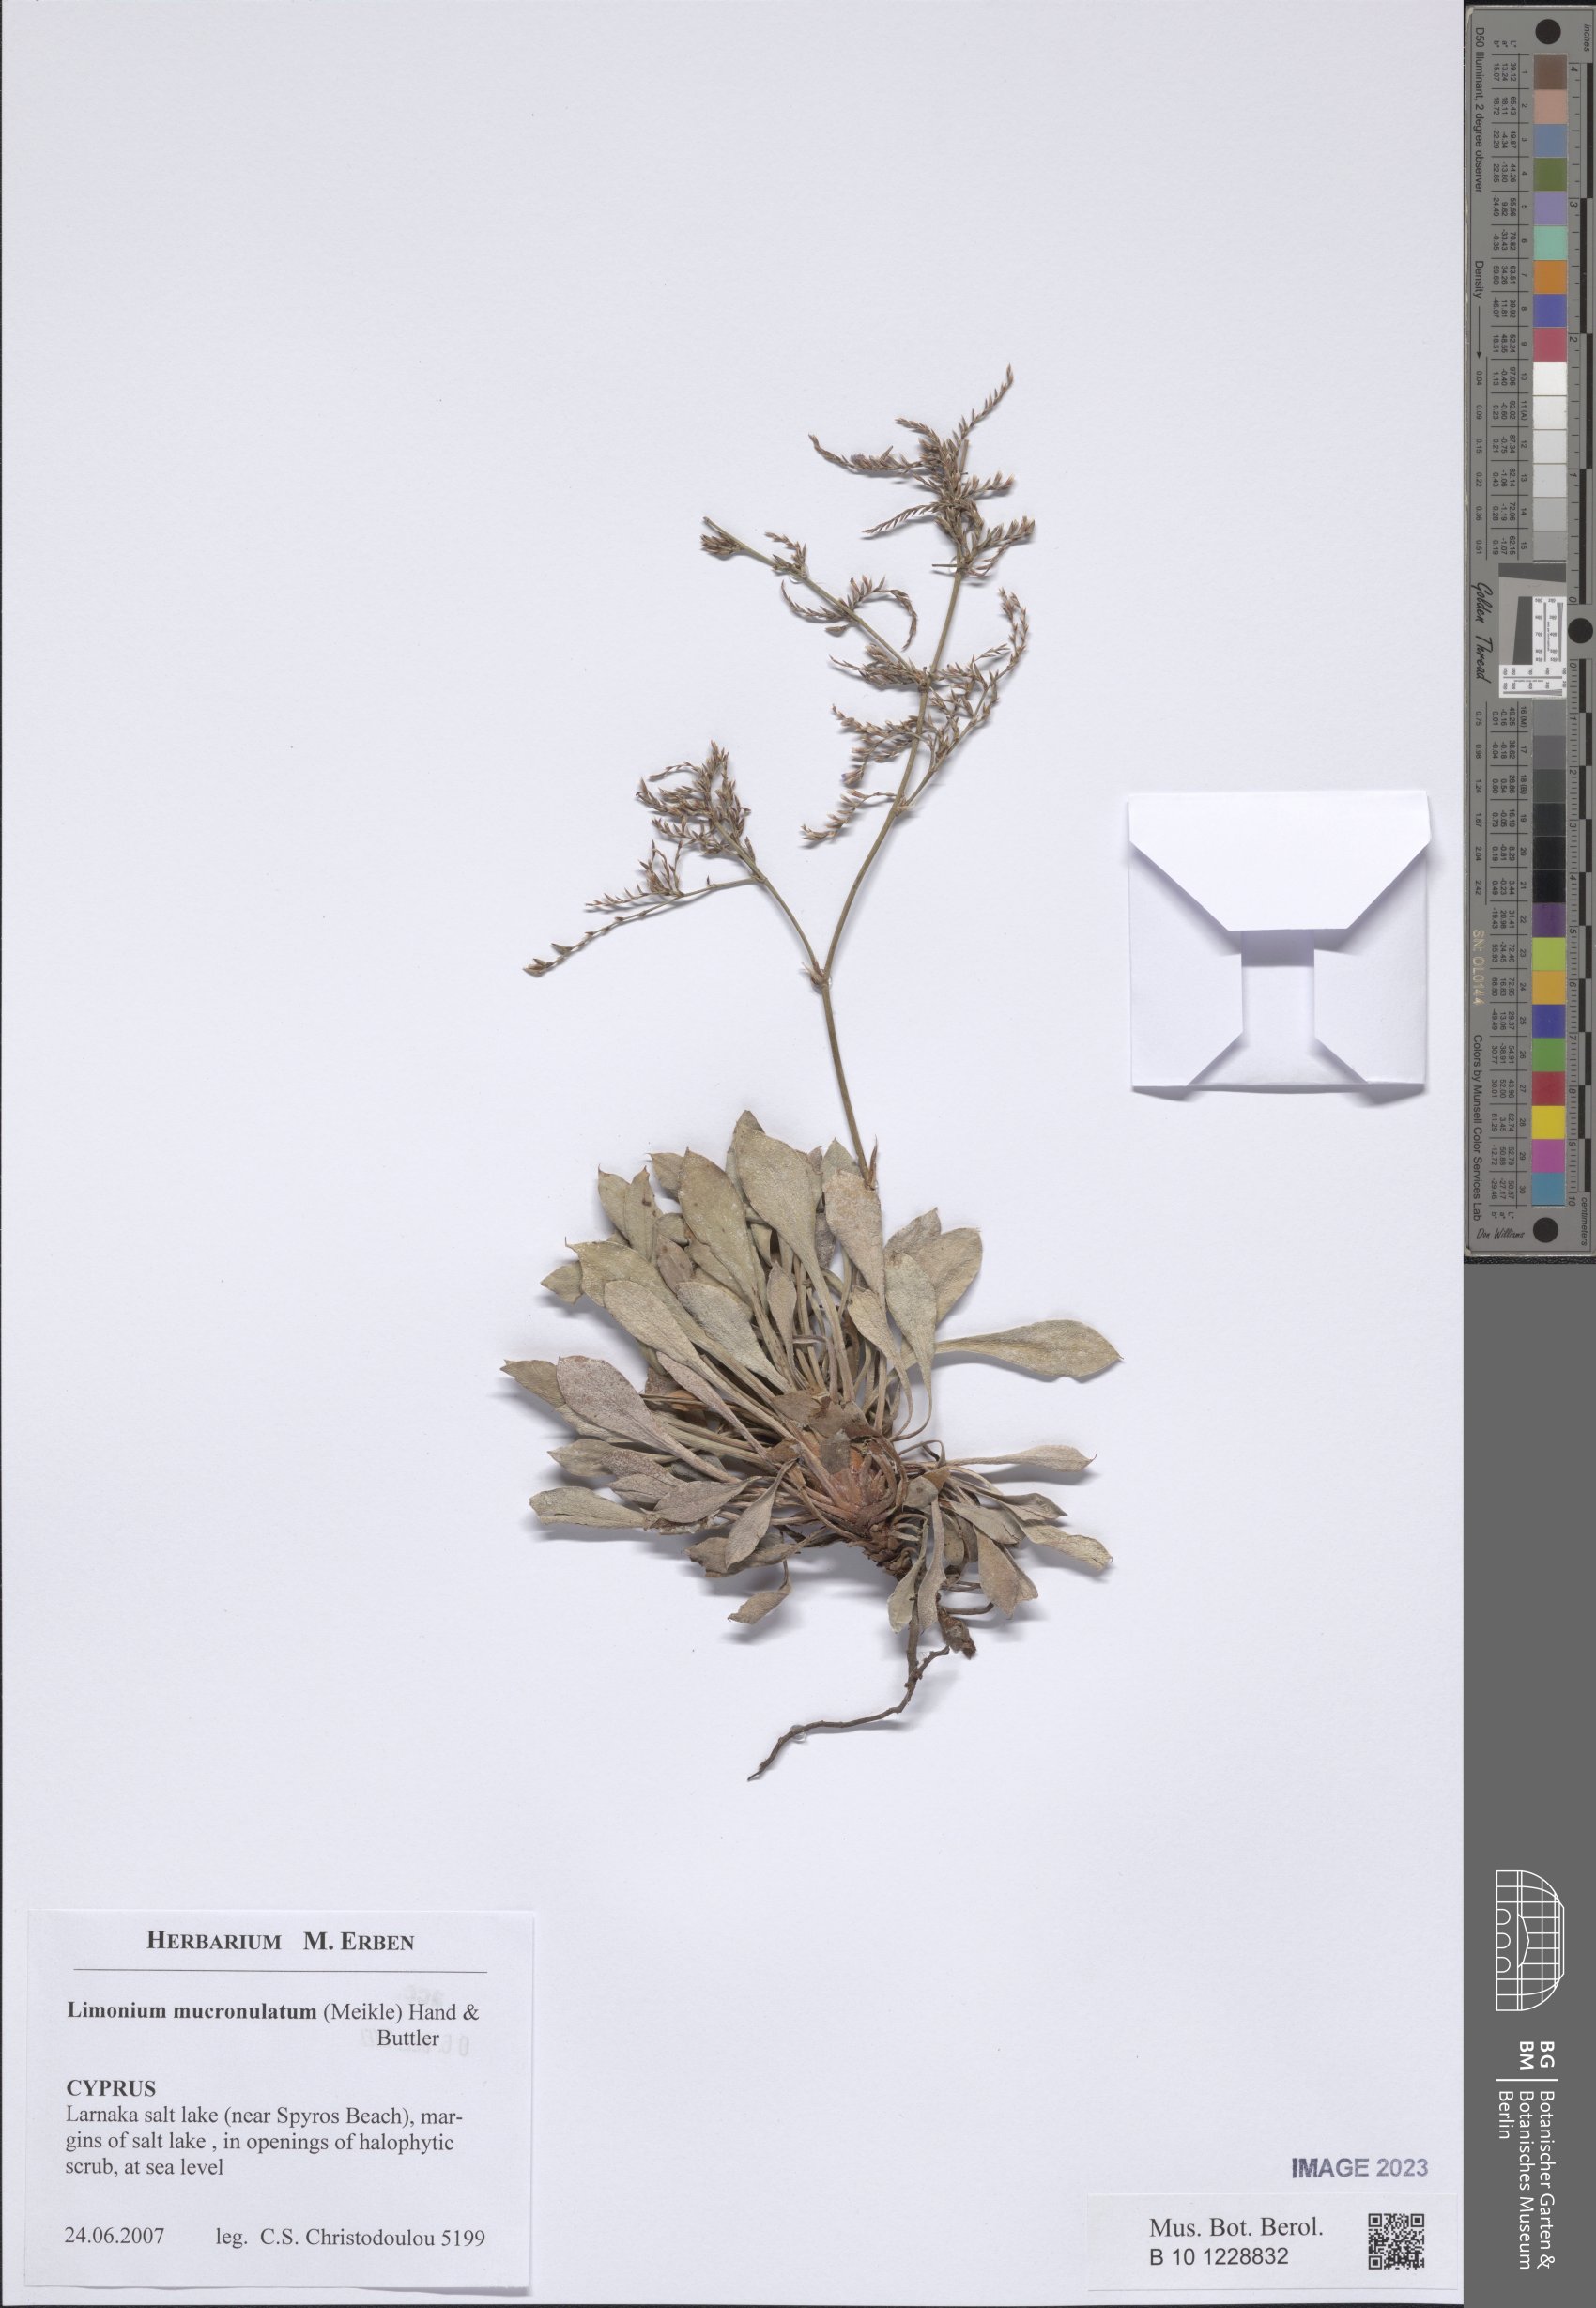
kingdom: Plantae
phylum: Tracheophyta
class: Magnoliopsida
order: Caryophyllales
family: Plumbaginaceae
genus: Limonium
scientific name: Limonium mucronulatum
